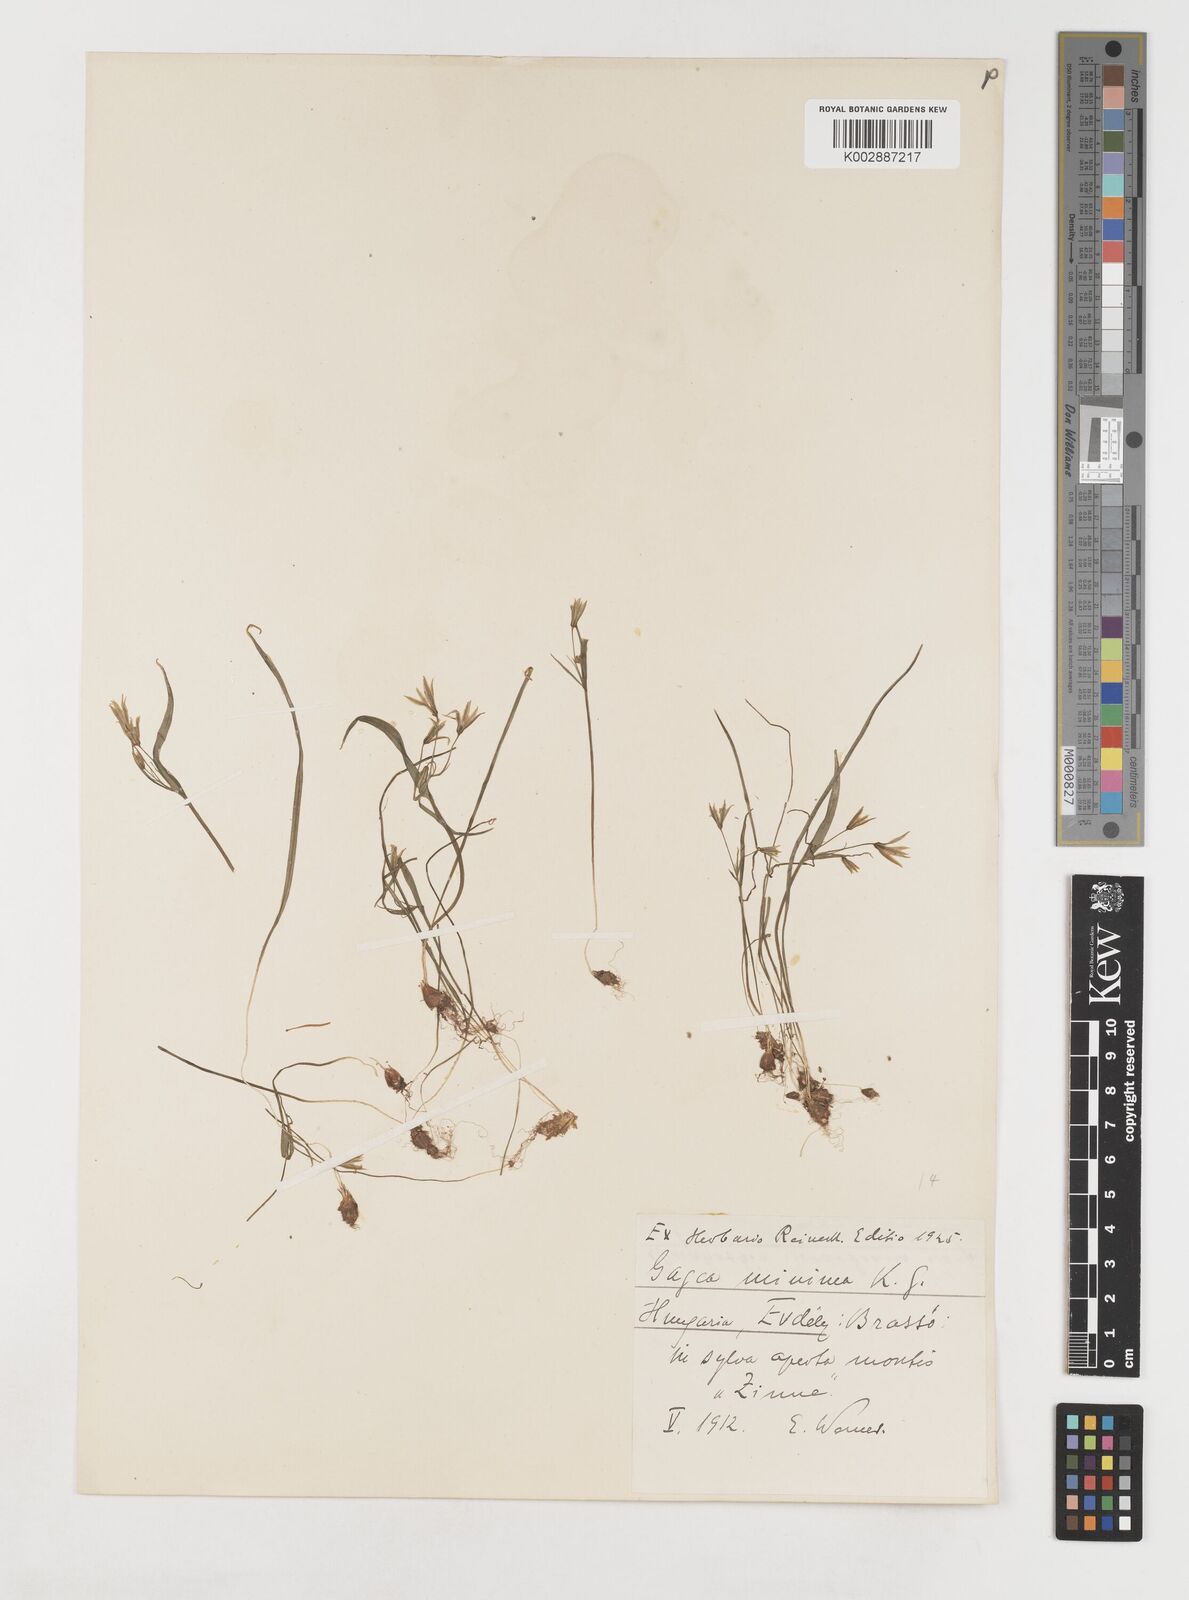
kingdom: Plantae
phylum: Tracheophyta
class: Liliopsida
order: Liliales
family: Liliaceae
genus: Gagea
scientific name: Gagea minima
